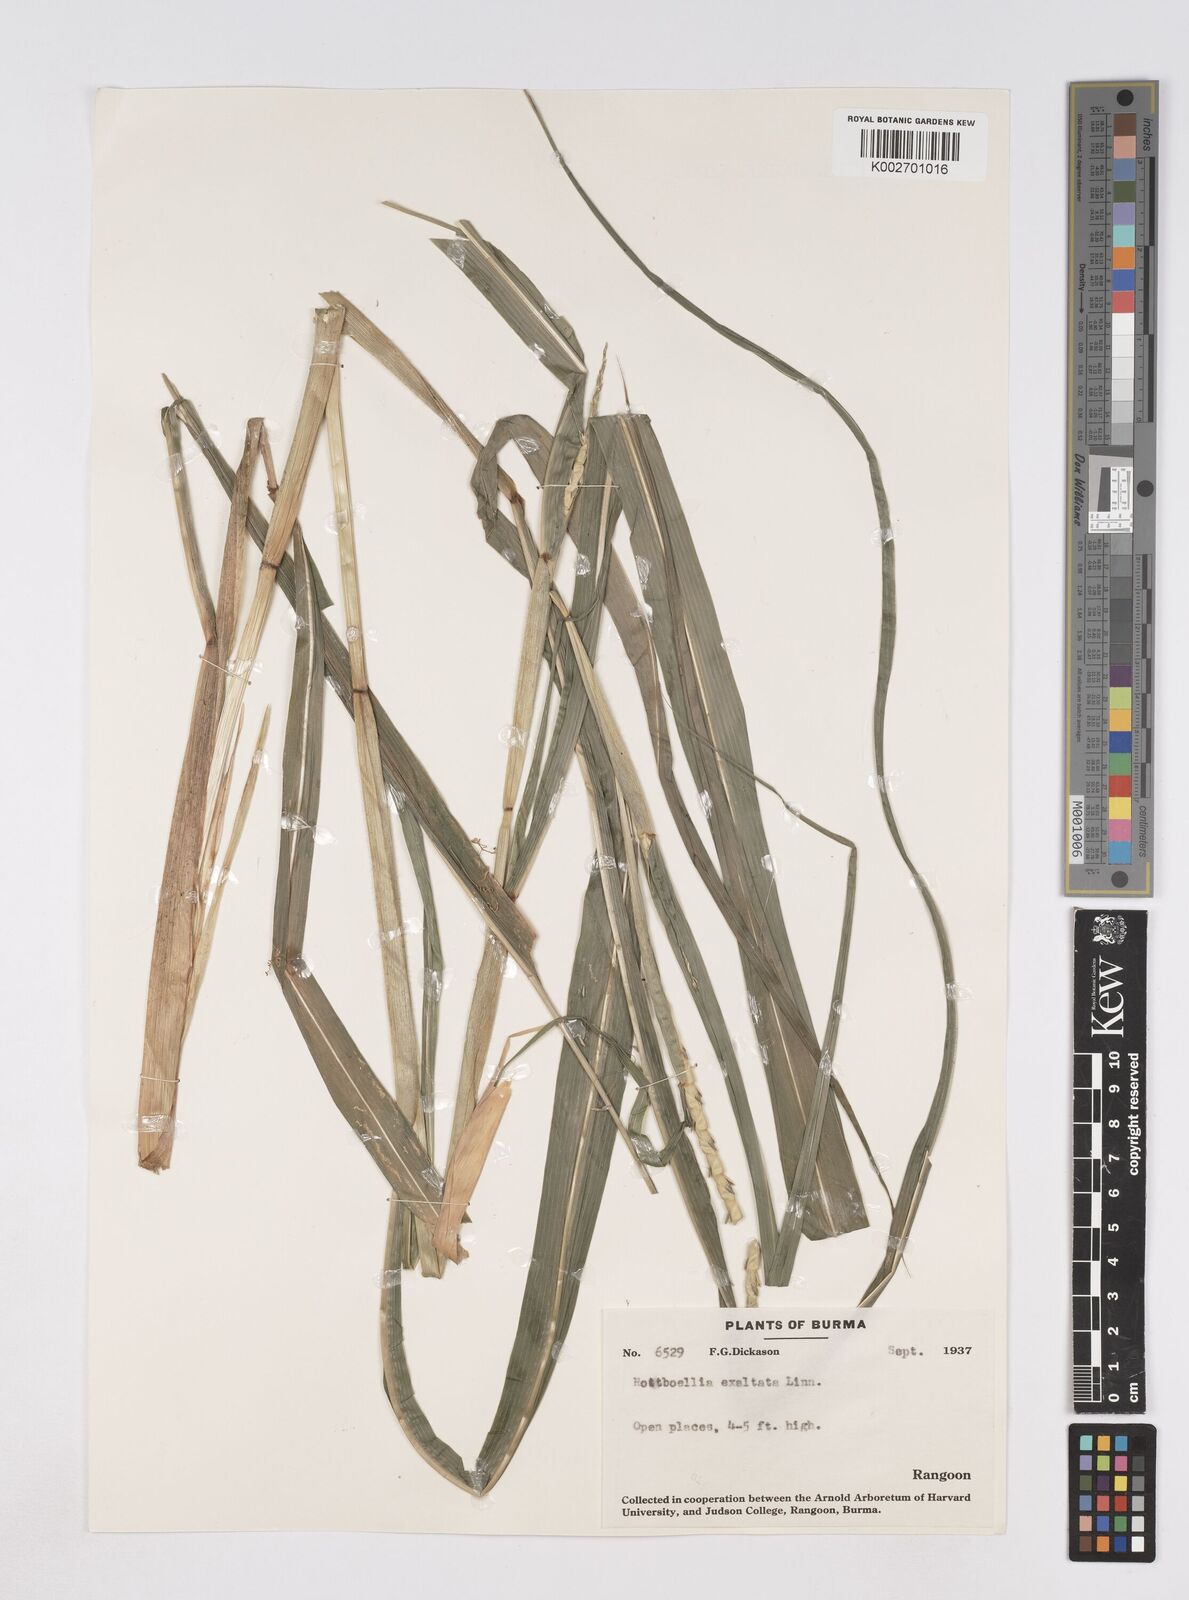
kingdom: Plantae
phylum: Tracheophyta
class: Liliopsida
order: Poales
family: Poaceae
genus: Ophiuros
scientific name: Ophiuros exaltatus
